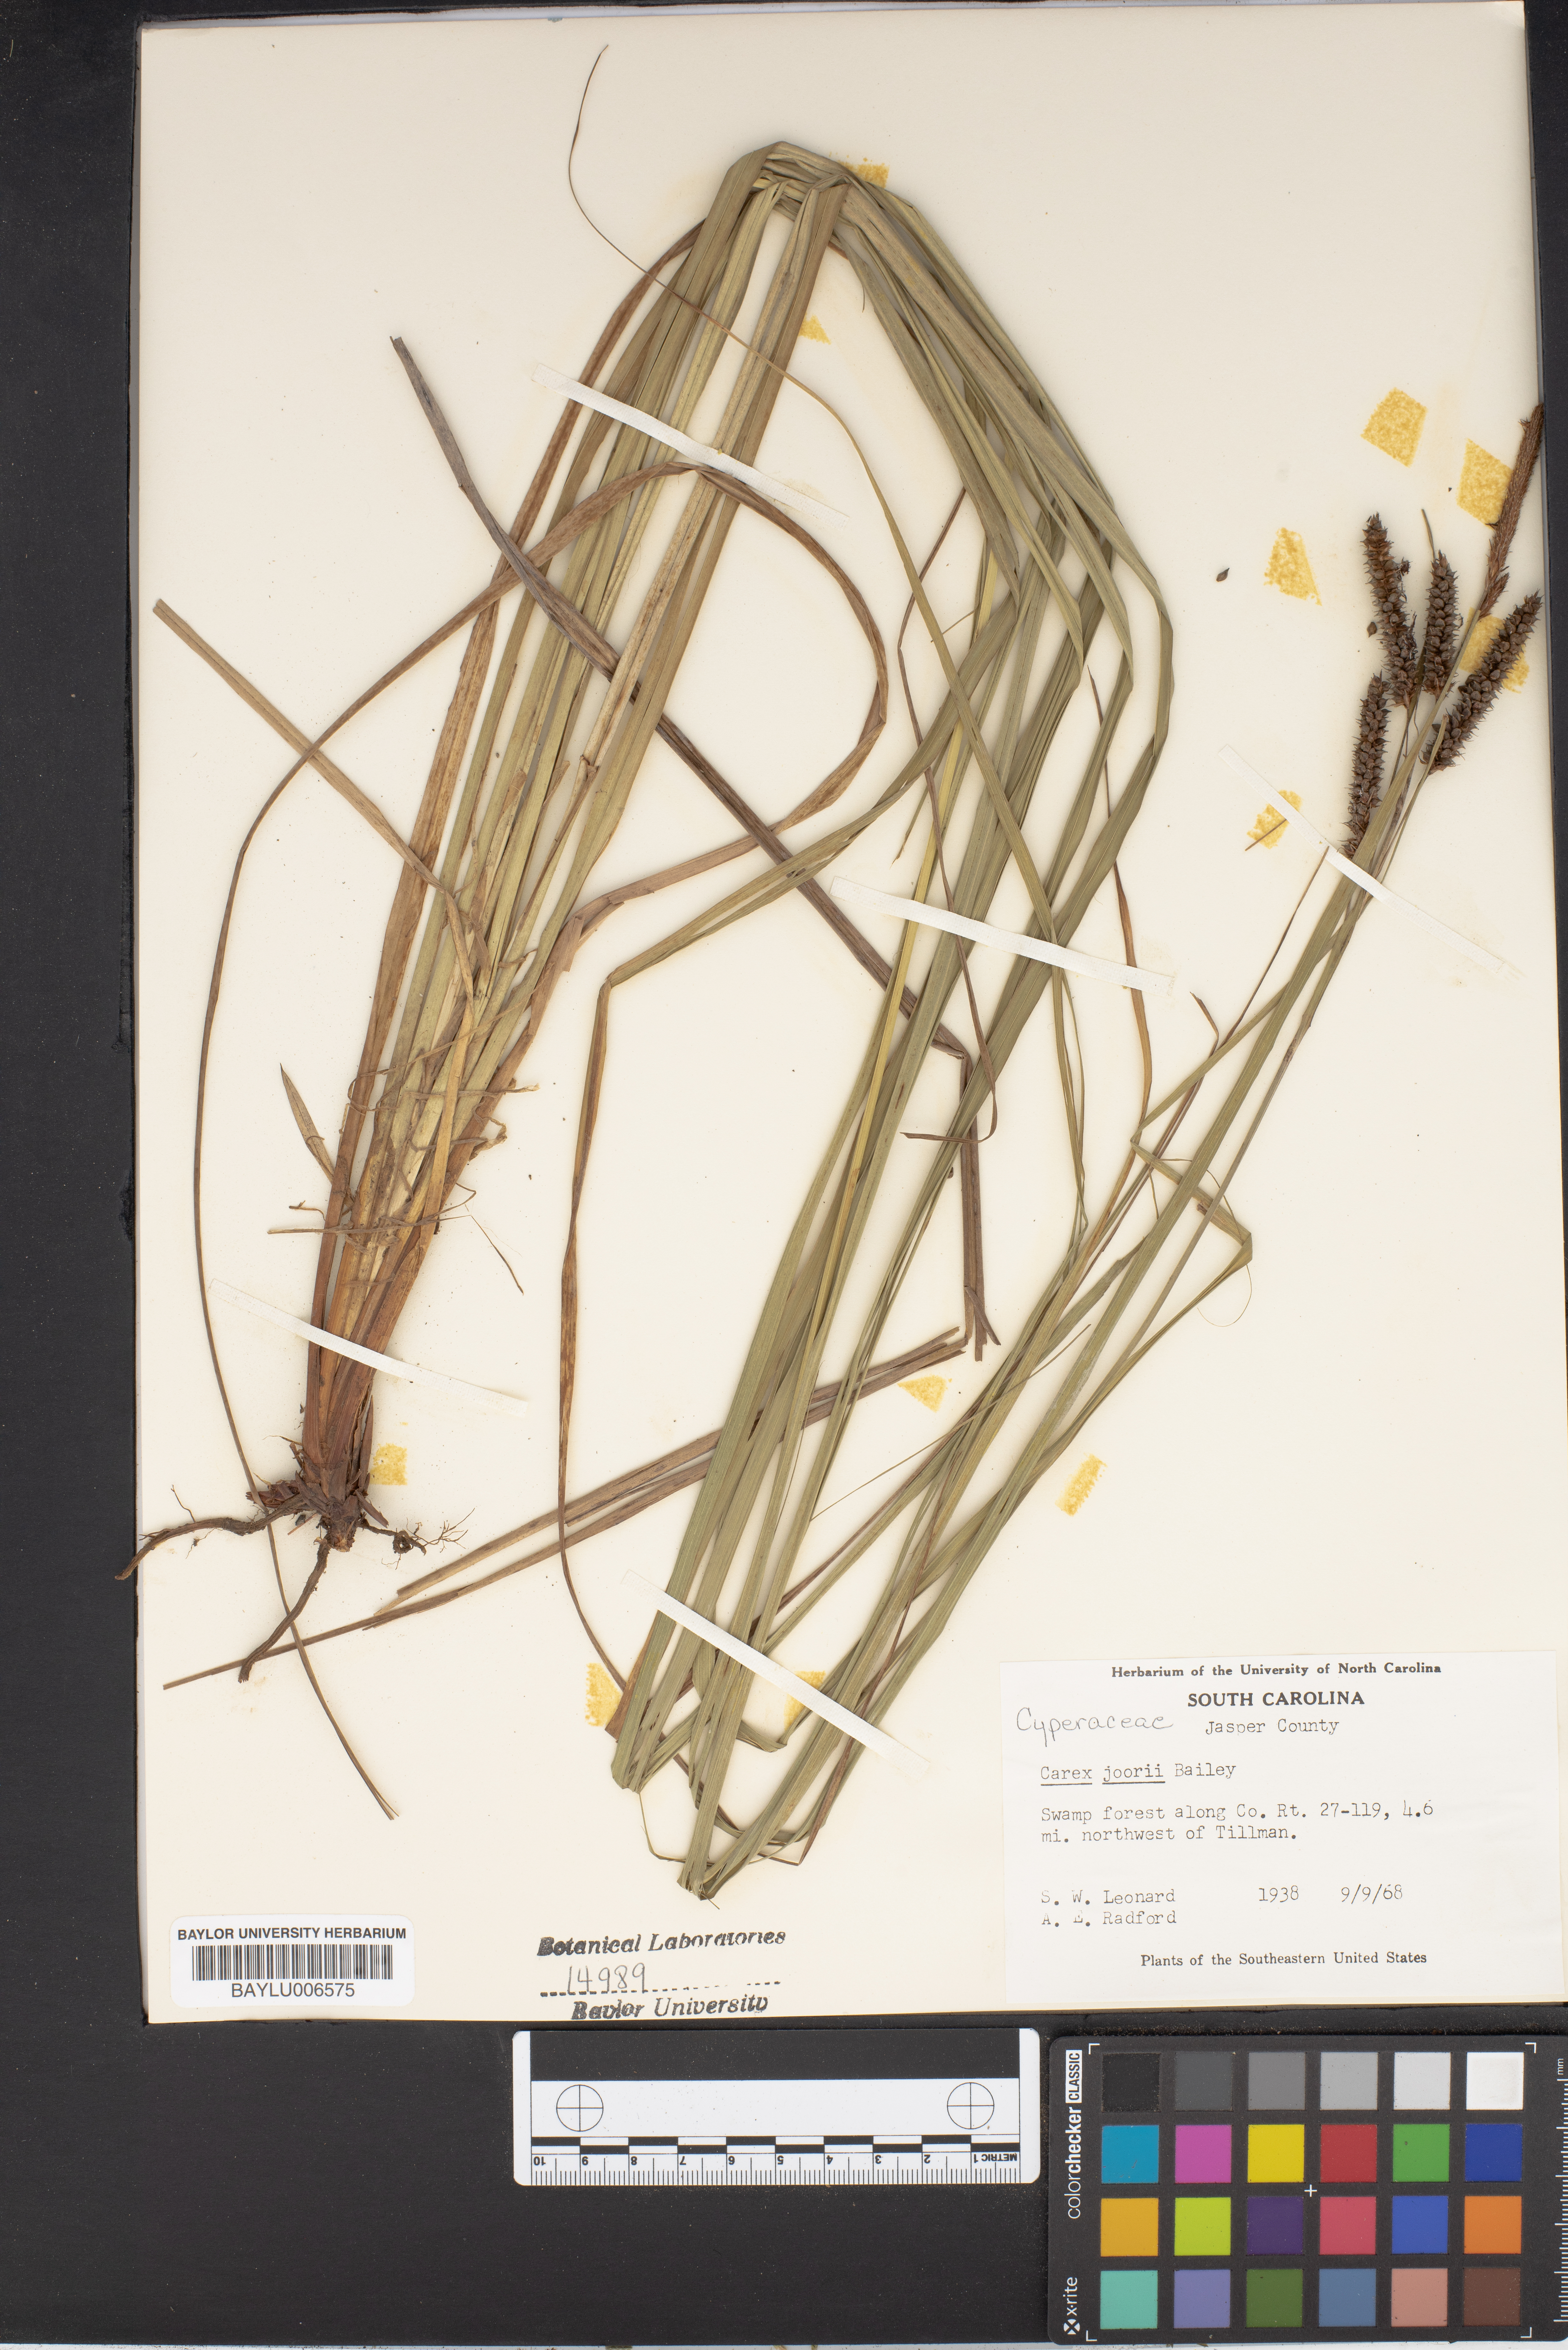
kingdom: Plantae
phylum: Tracheophyta
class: Liliopsida
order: Poales
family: Cyperaceae
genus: Carex
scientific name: Carex joorii
